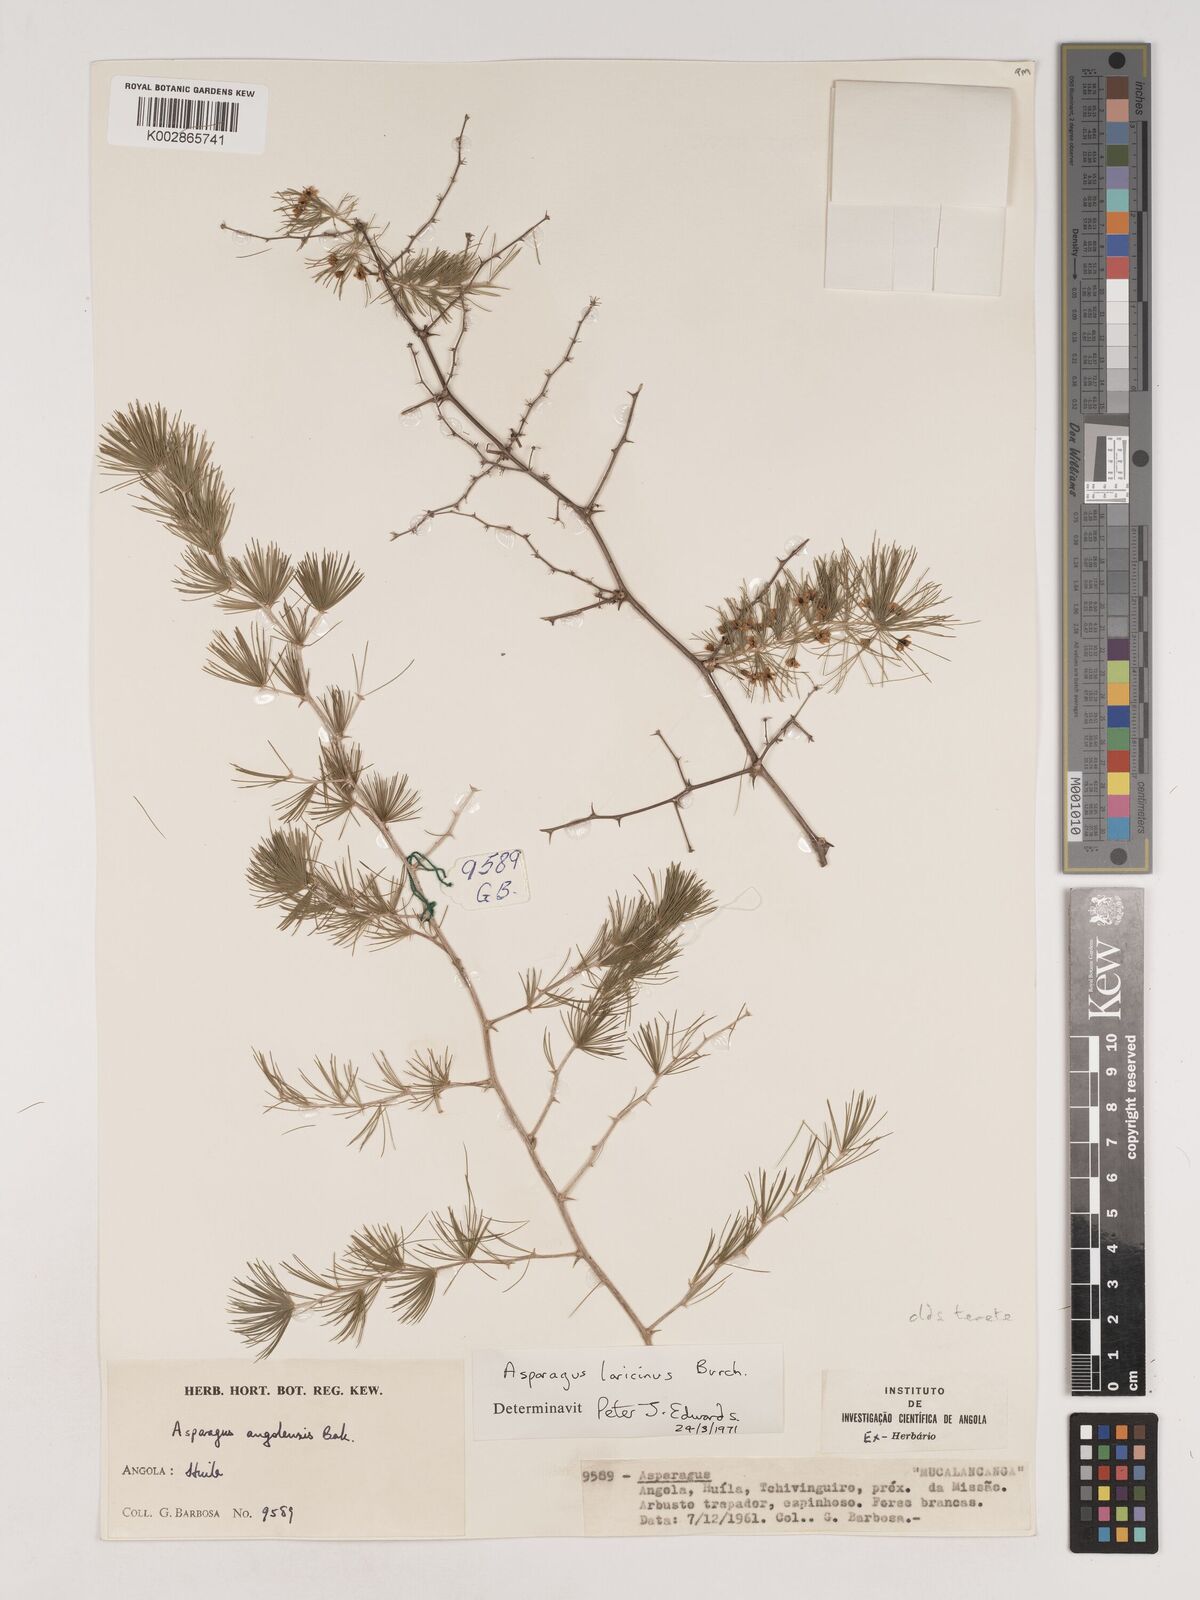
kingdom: Plantae
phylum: Tracheophyta
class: Liliopsida
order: Asparagales
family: Asparagaceae
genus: Asparagus
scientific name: Asparagus laricinus
